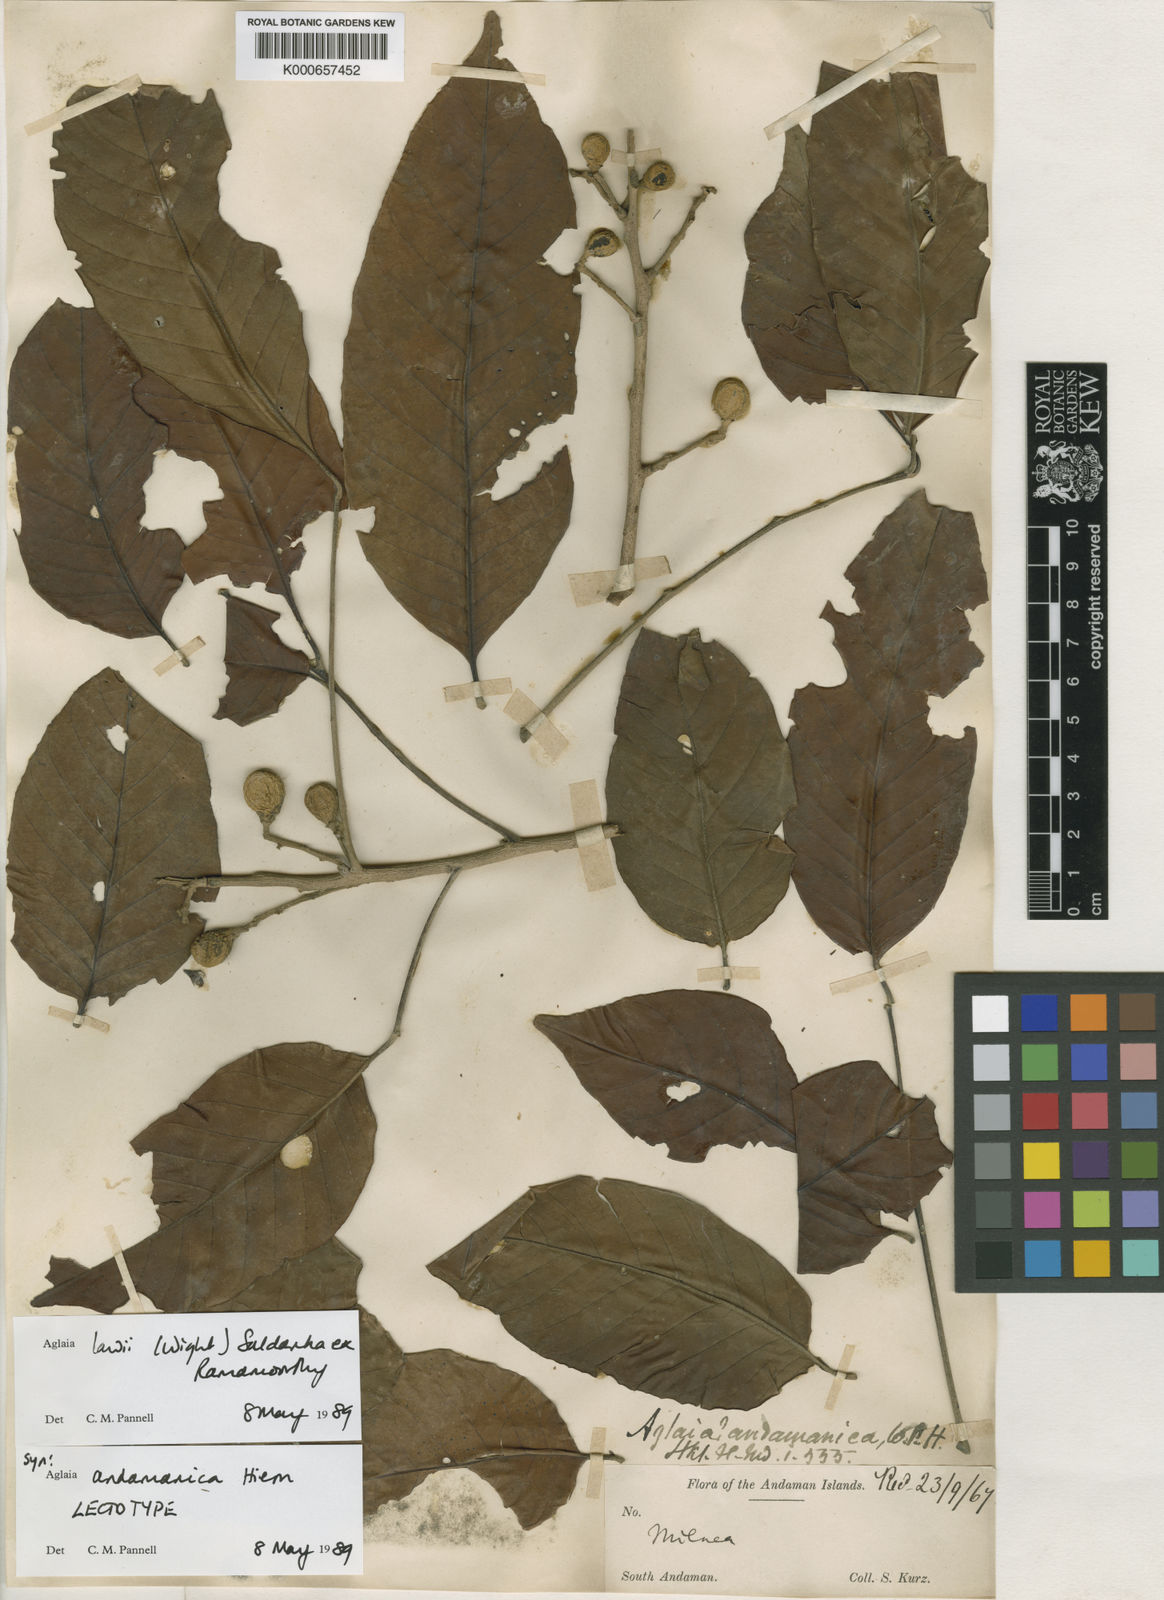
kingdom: Plantae
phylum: Tracheophyta
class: Magnoliopsida
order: Sapindales
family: Meliaceae
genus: Aglaia
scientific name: Aglaia
